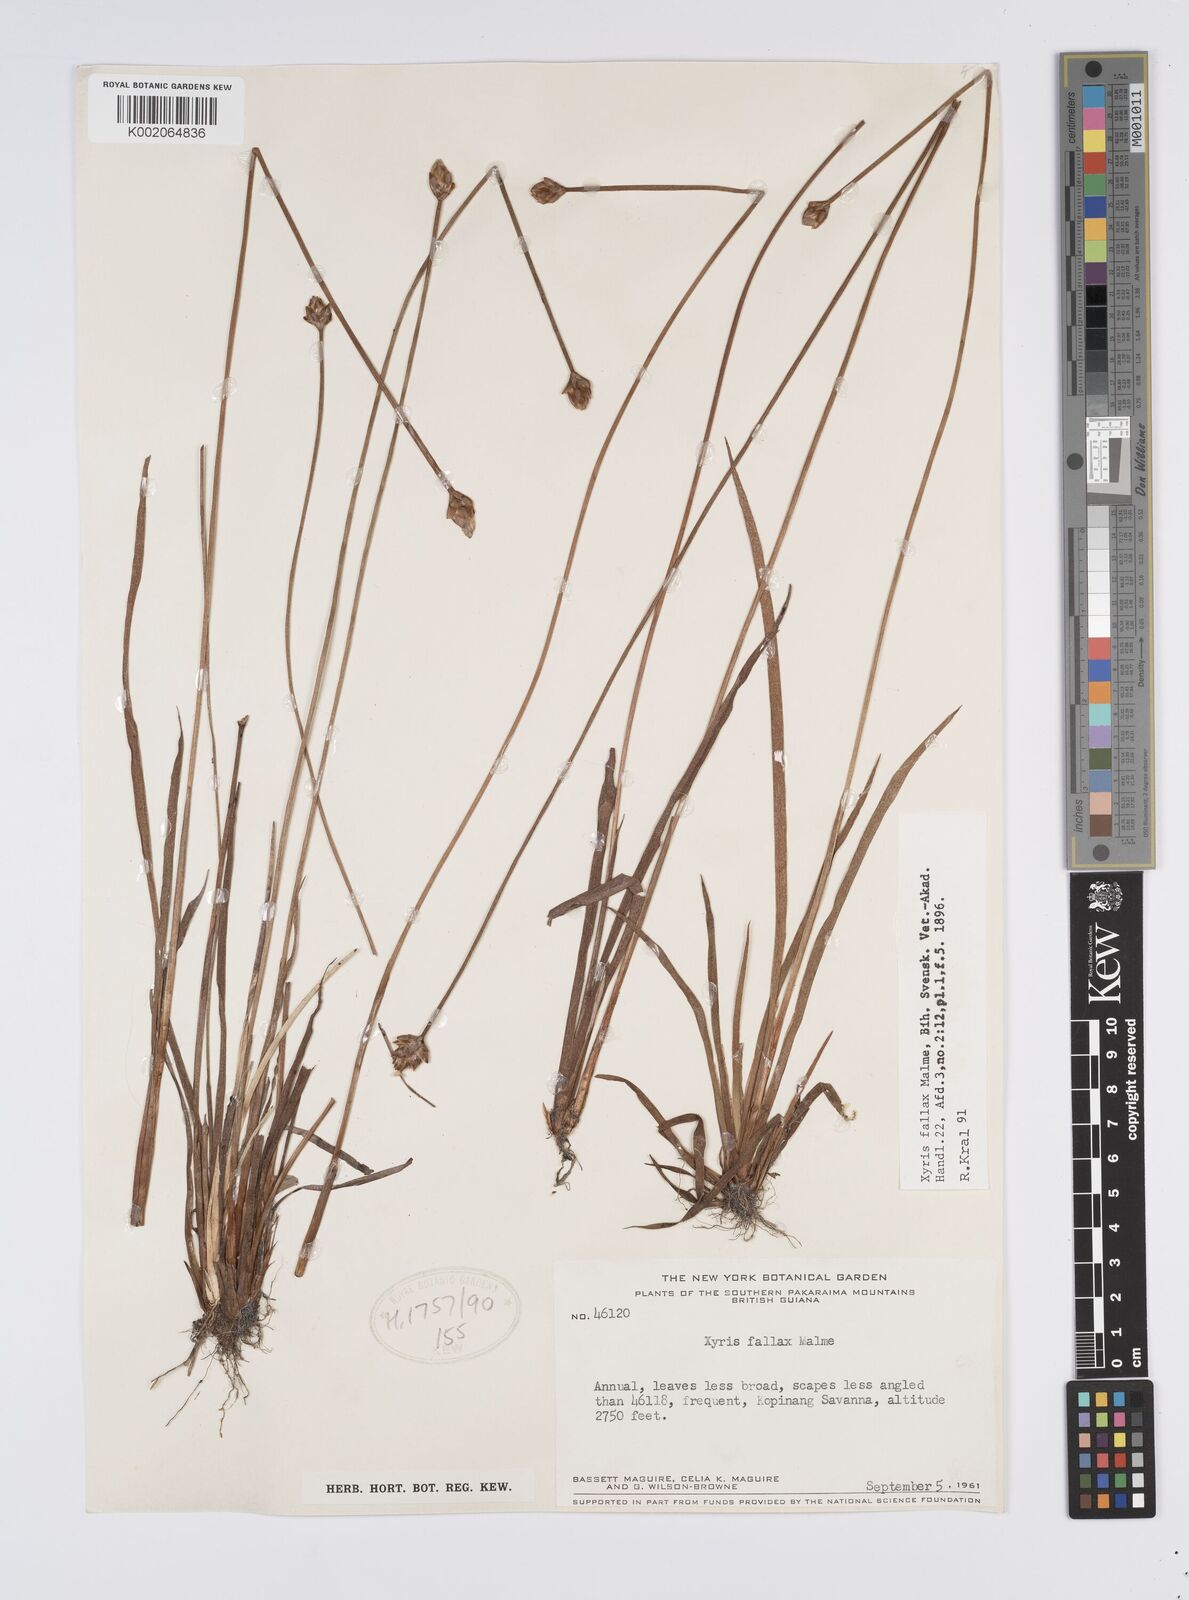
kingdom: Plantae
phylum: Tracheophyta
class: Liliopsida
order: Poales
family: Xyridaceae
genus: Xyris
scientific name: Xyris fallax
